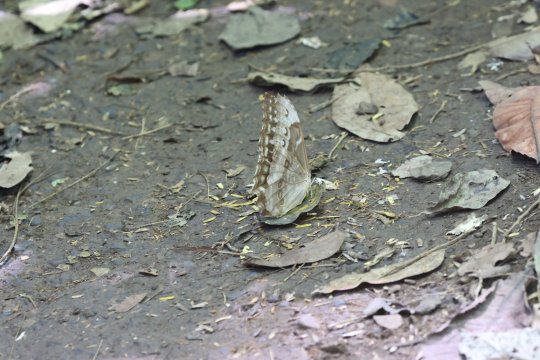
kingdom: Animalia
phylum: Arthropoda
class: Insecta
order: Lepidoptera
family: Nymphalidae
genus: Morpho
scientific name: Morpho cypris
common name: Cypris Morpho
